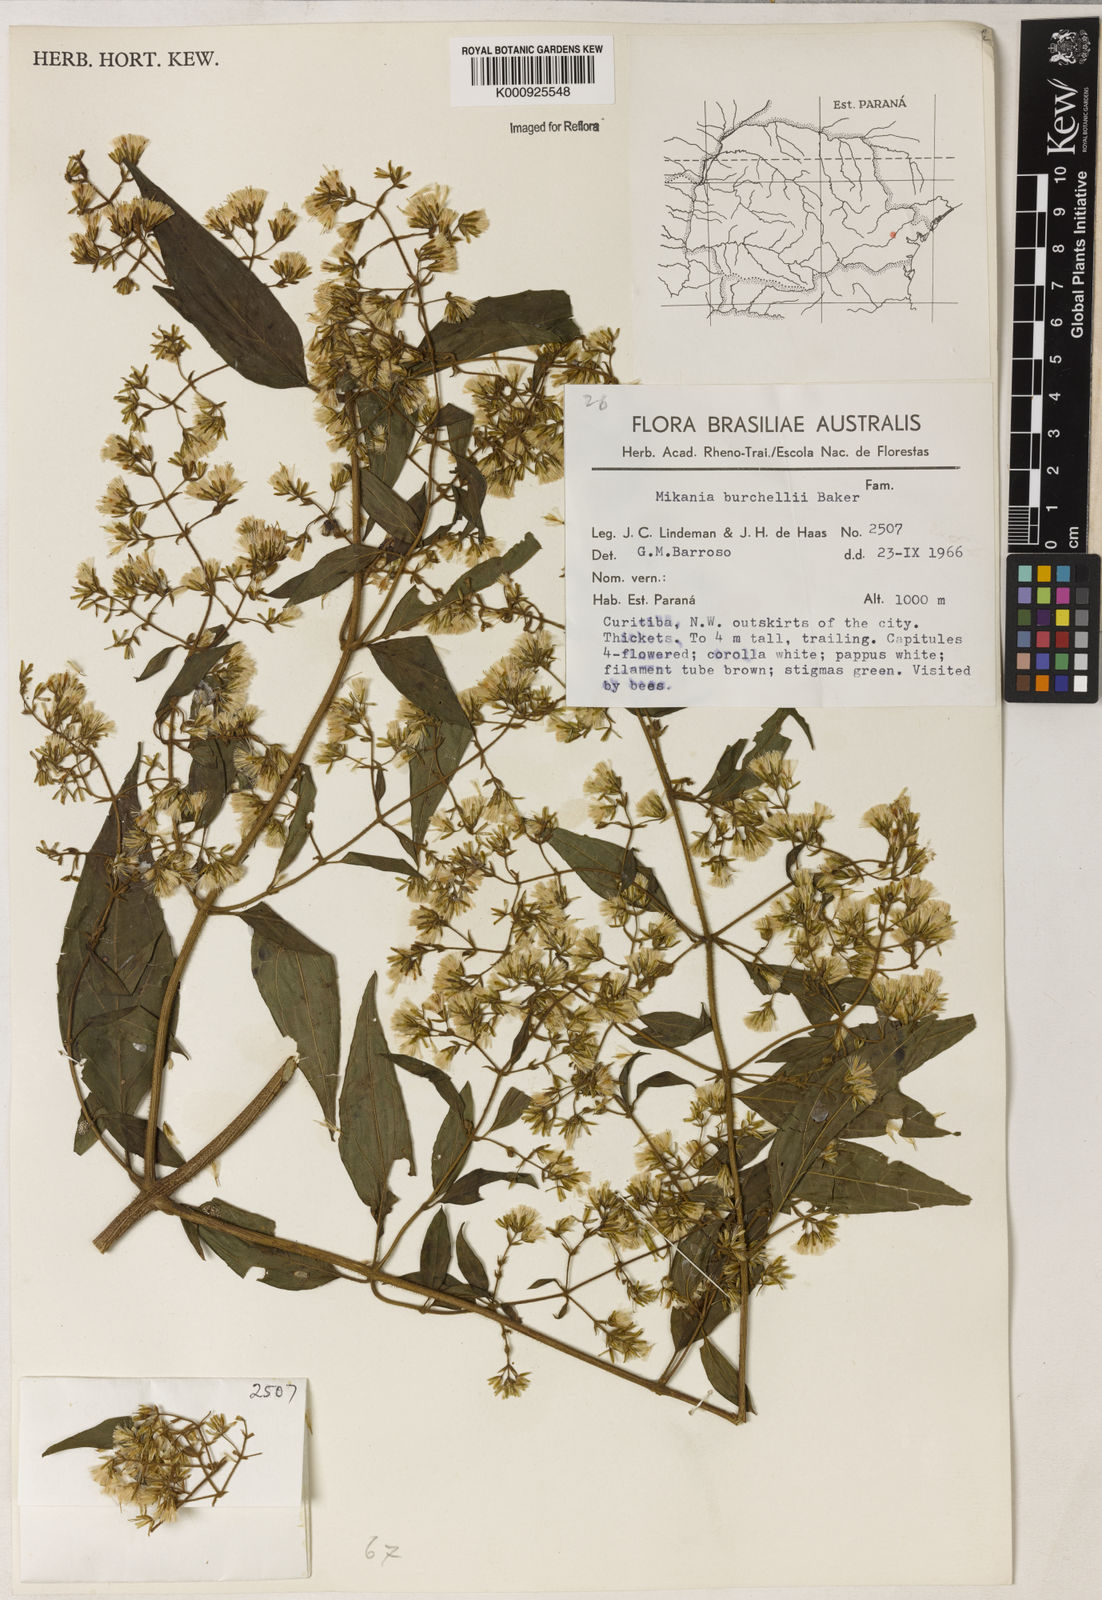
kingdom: Plantae
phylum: Tracheophyta
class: Magnoliopsida
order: Asterales
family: Asteraceae
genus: Mikania
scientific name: Mikania burchellii
